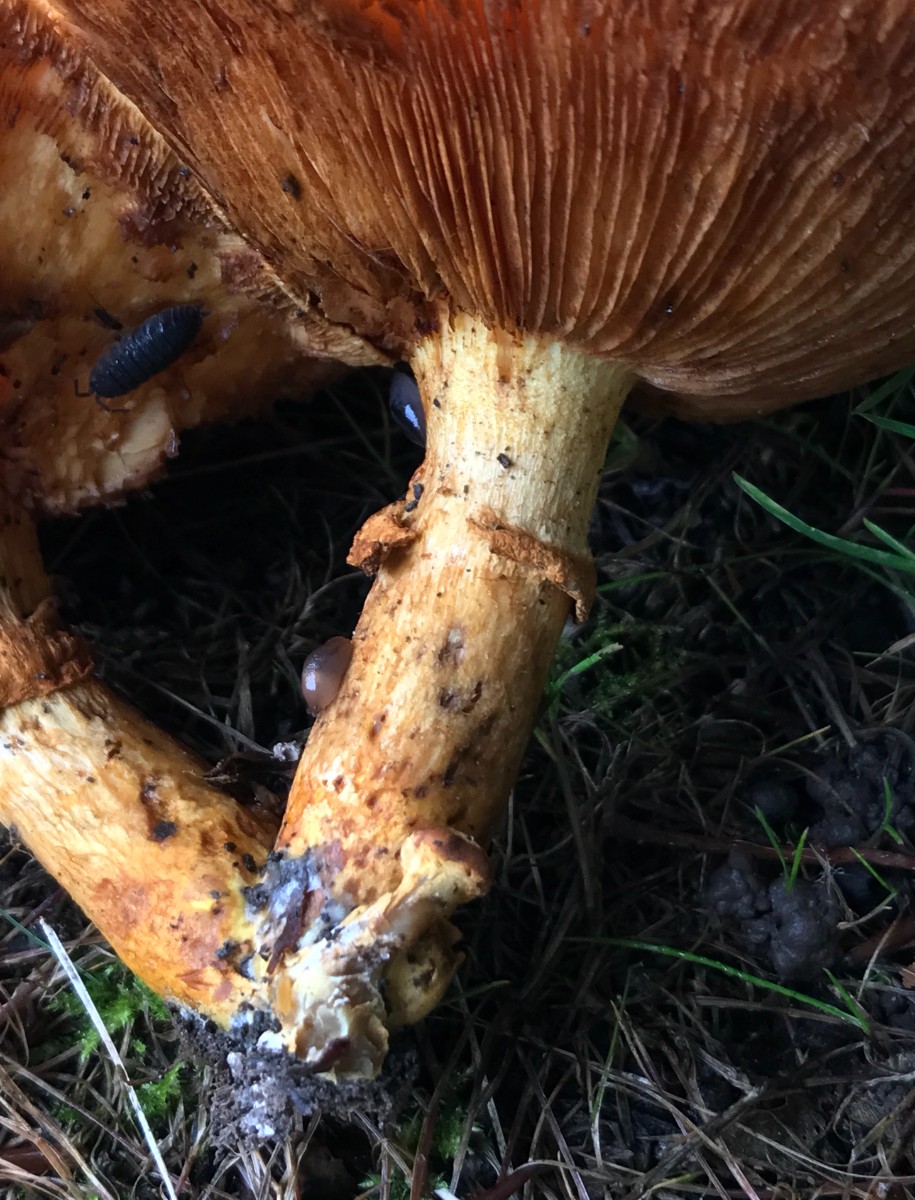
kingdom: Fungi
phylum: Basidiomycota
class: Agaricomycetes
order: Agaricales
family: Hymenogastraceae
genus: Gymnopilus
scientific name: Gymnopilus spectabilis
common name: fibret flammehat
